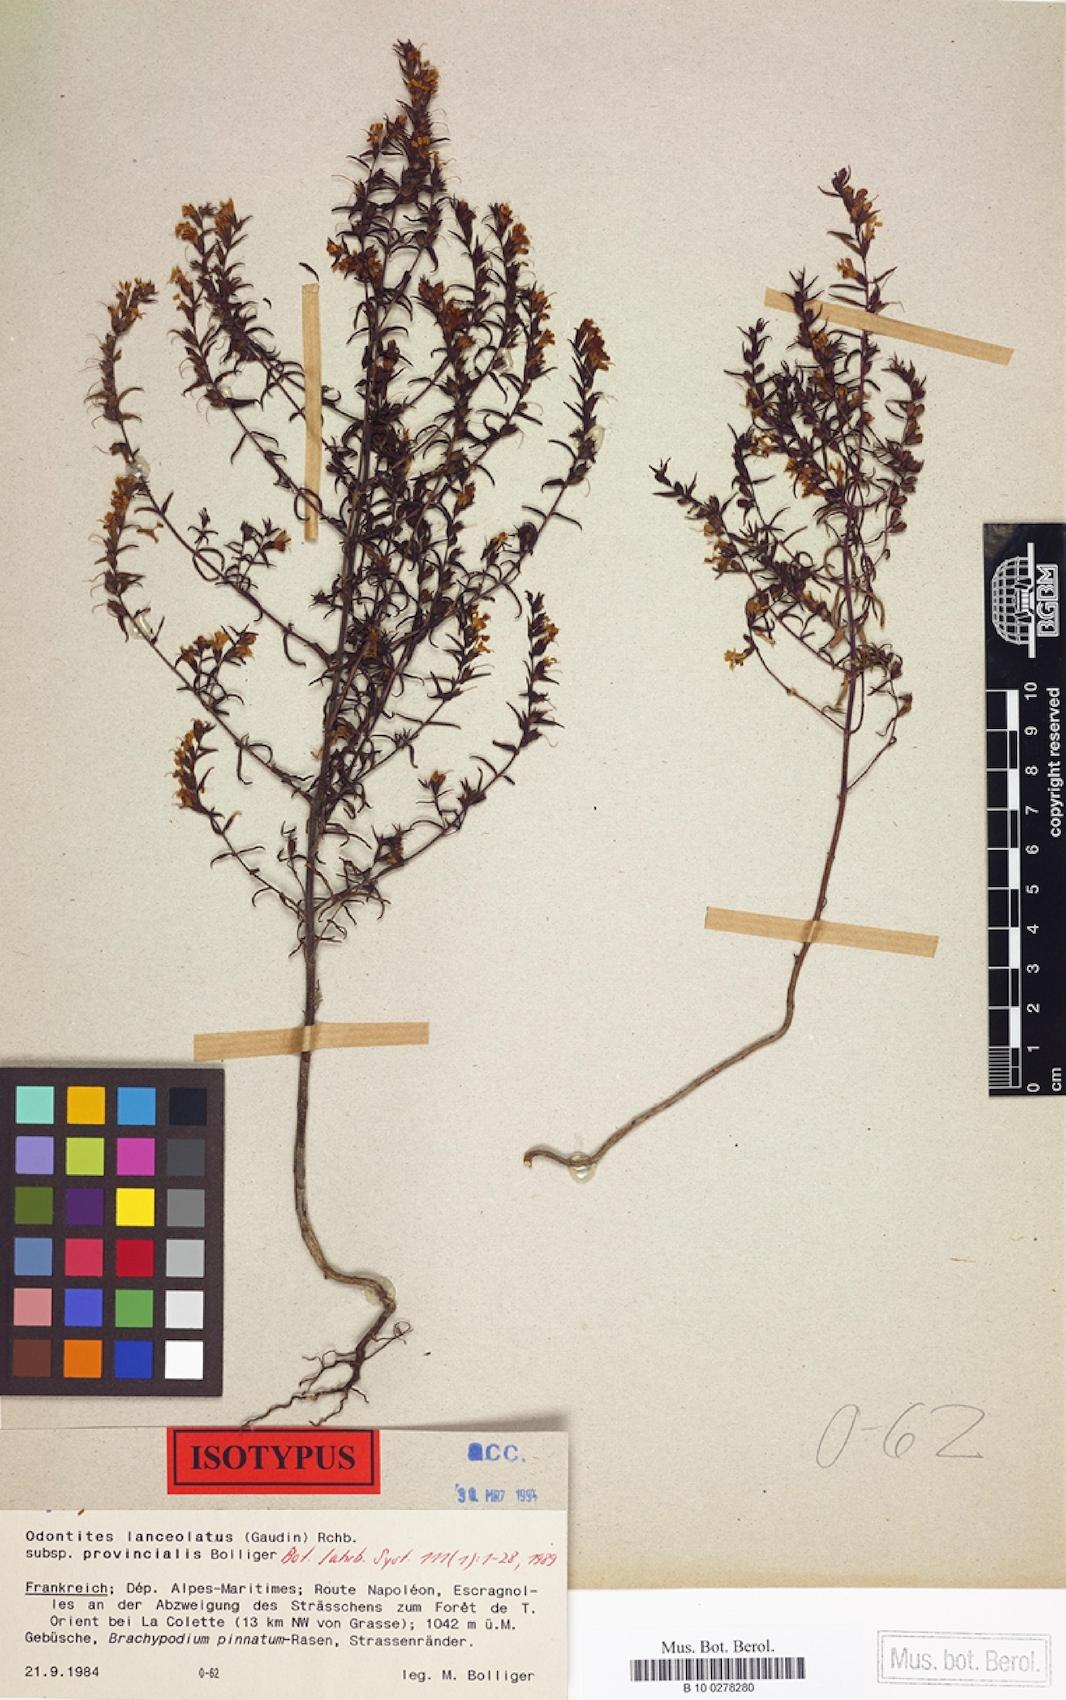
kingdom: Plantae
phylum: Tracheophyta
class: Magnoliopsida
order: Lamiales
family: Orobanchaceae
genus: Odontites
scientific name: Odontites lanceolatus
